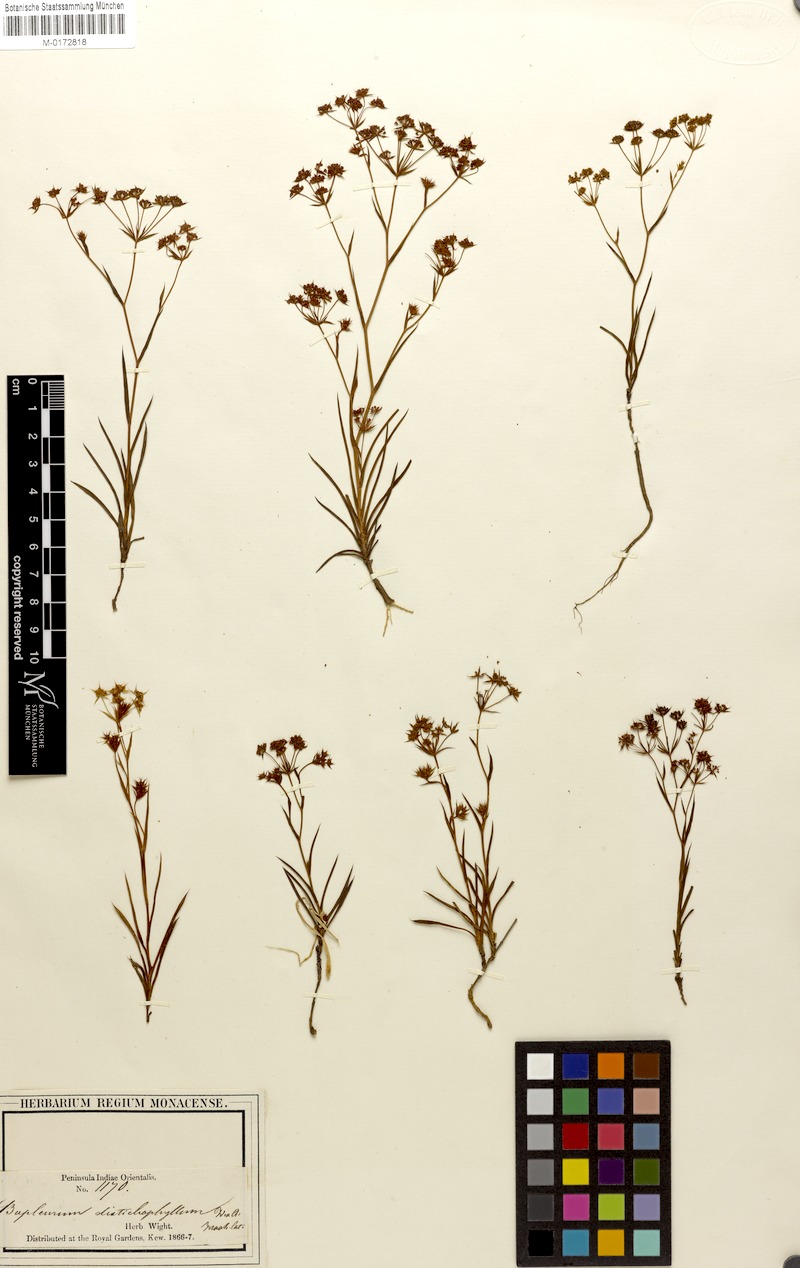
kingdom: Plantae
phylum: Tracheophyta
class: Magnoliopsida
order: Apiales
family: Apiaceae
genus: Bupleurum
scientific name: Bupleurum distichophyllum
